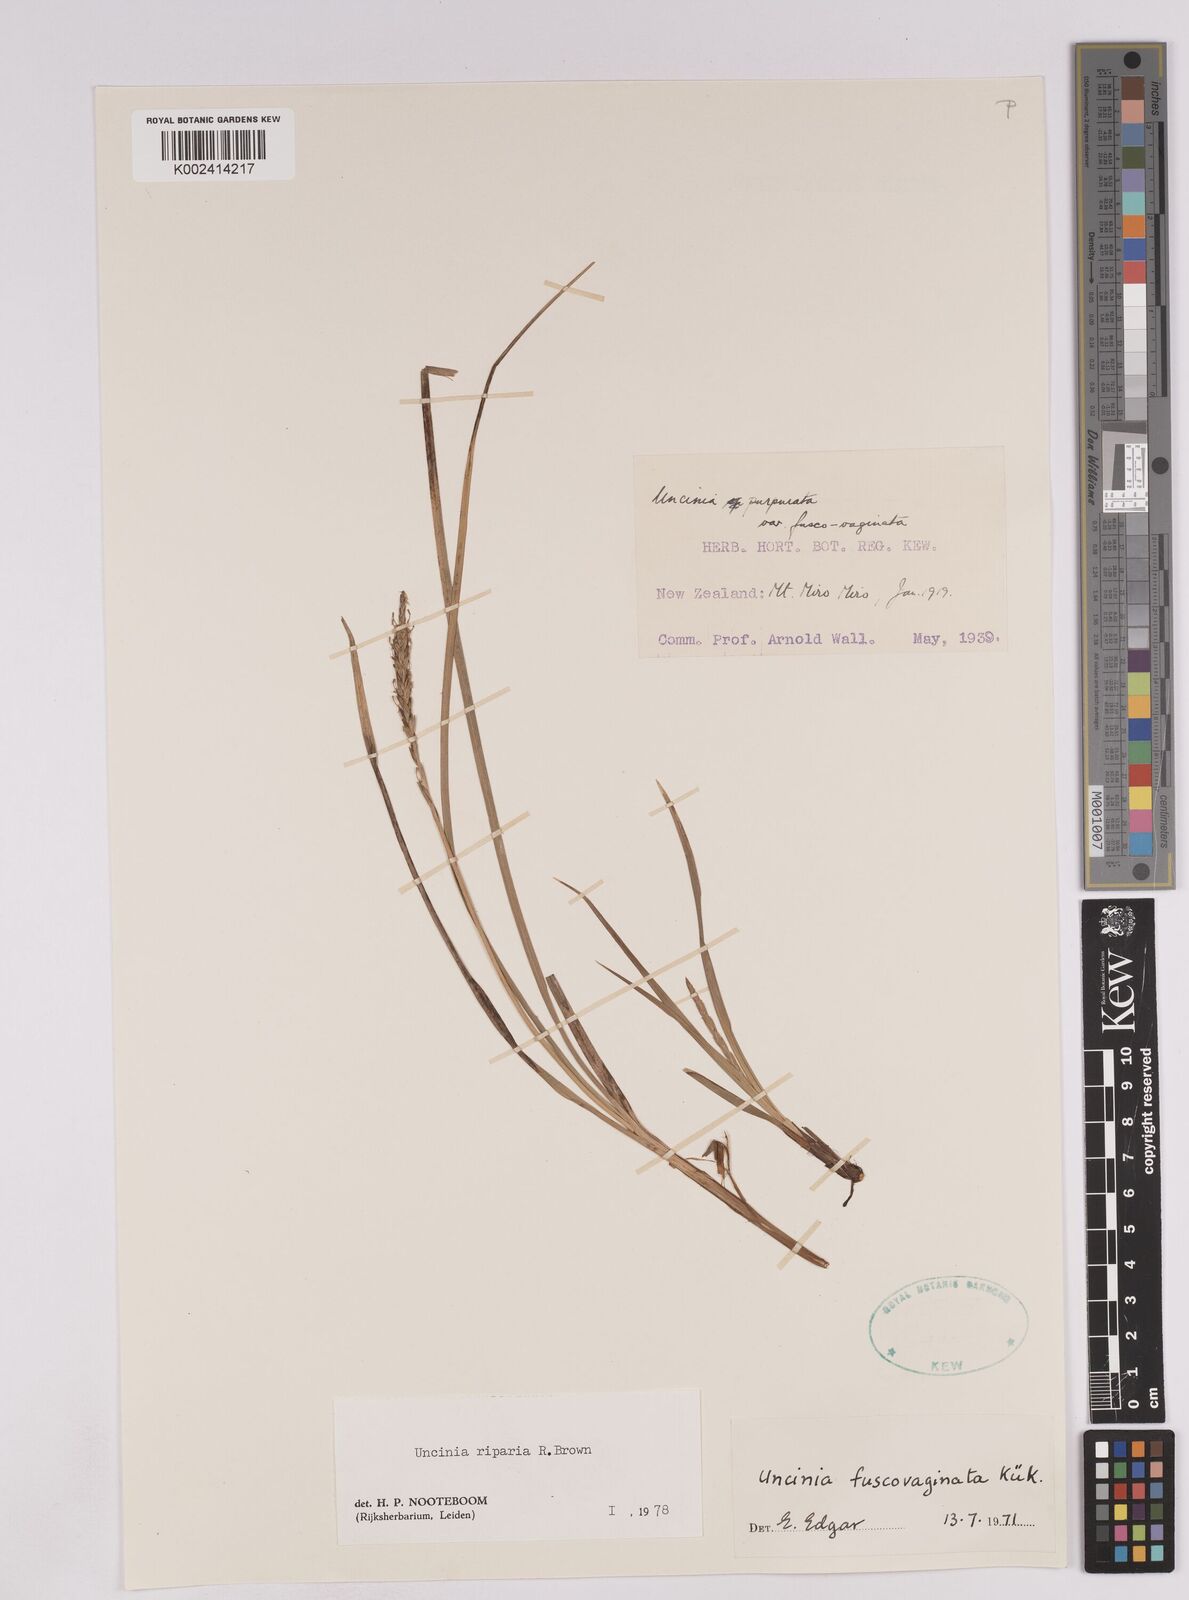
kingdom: Plantae
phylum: Tracheophyta
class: Liliopsida
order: Poales
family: Cyperaceae
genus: Carex
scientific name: Carex penalpina
